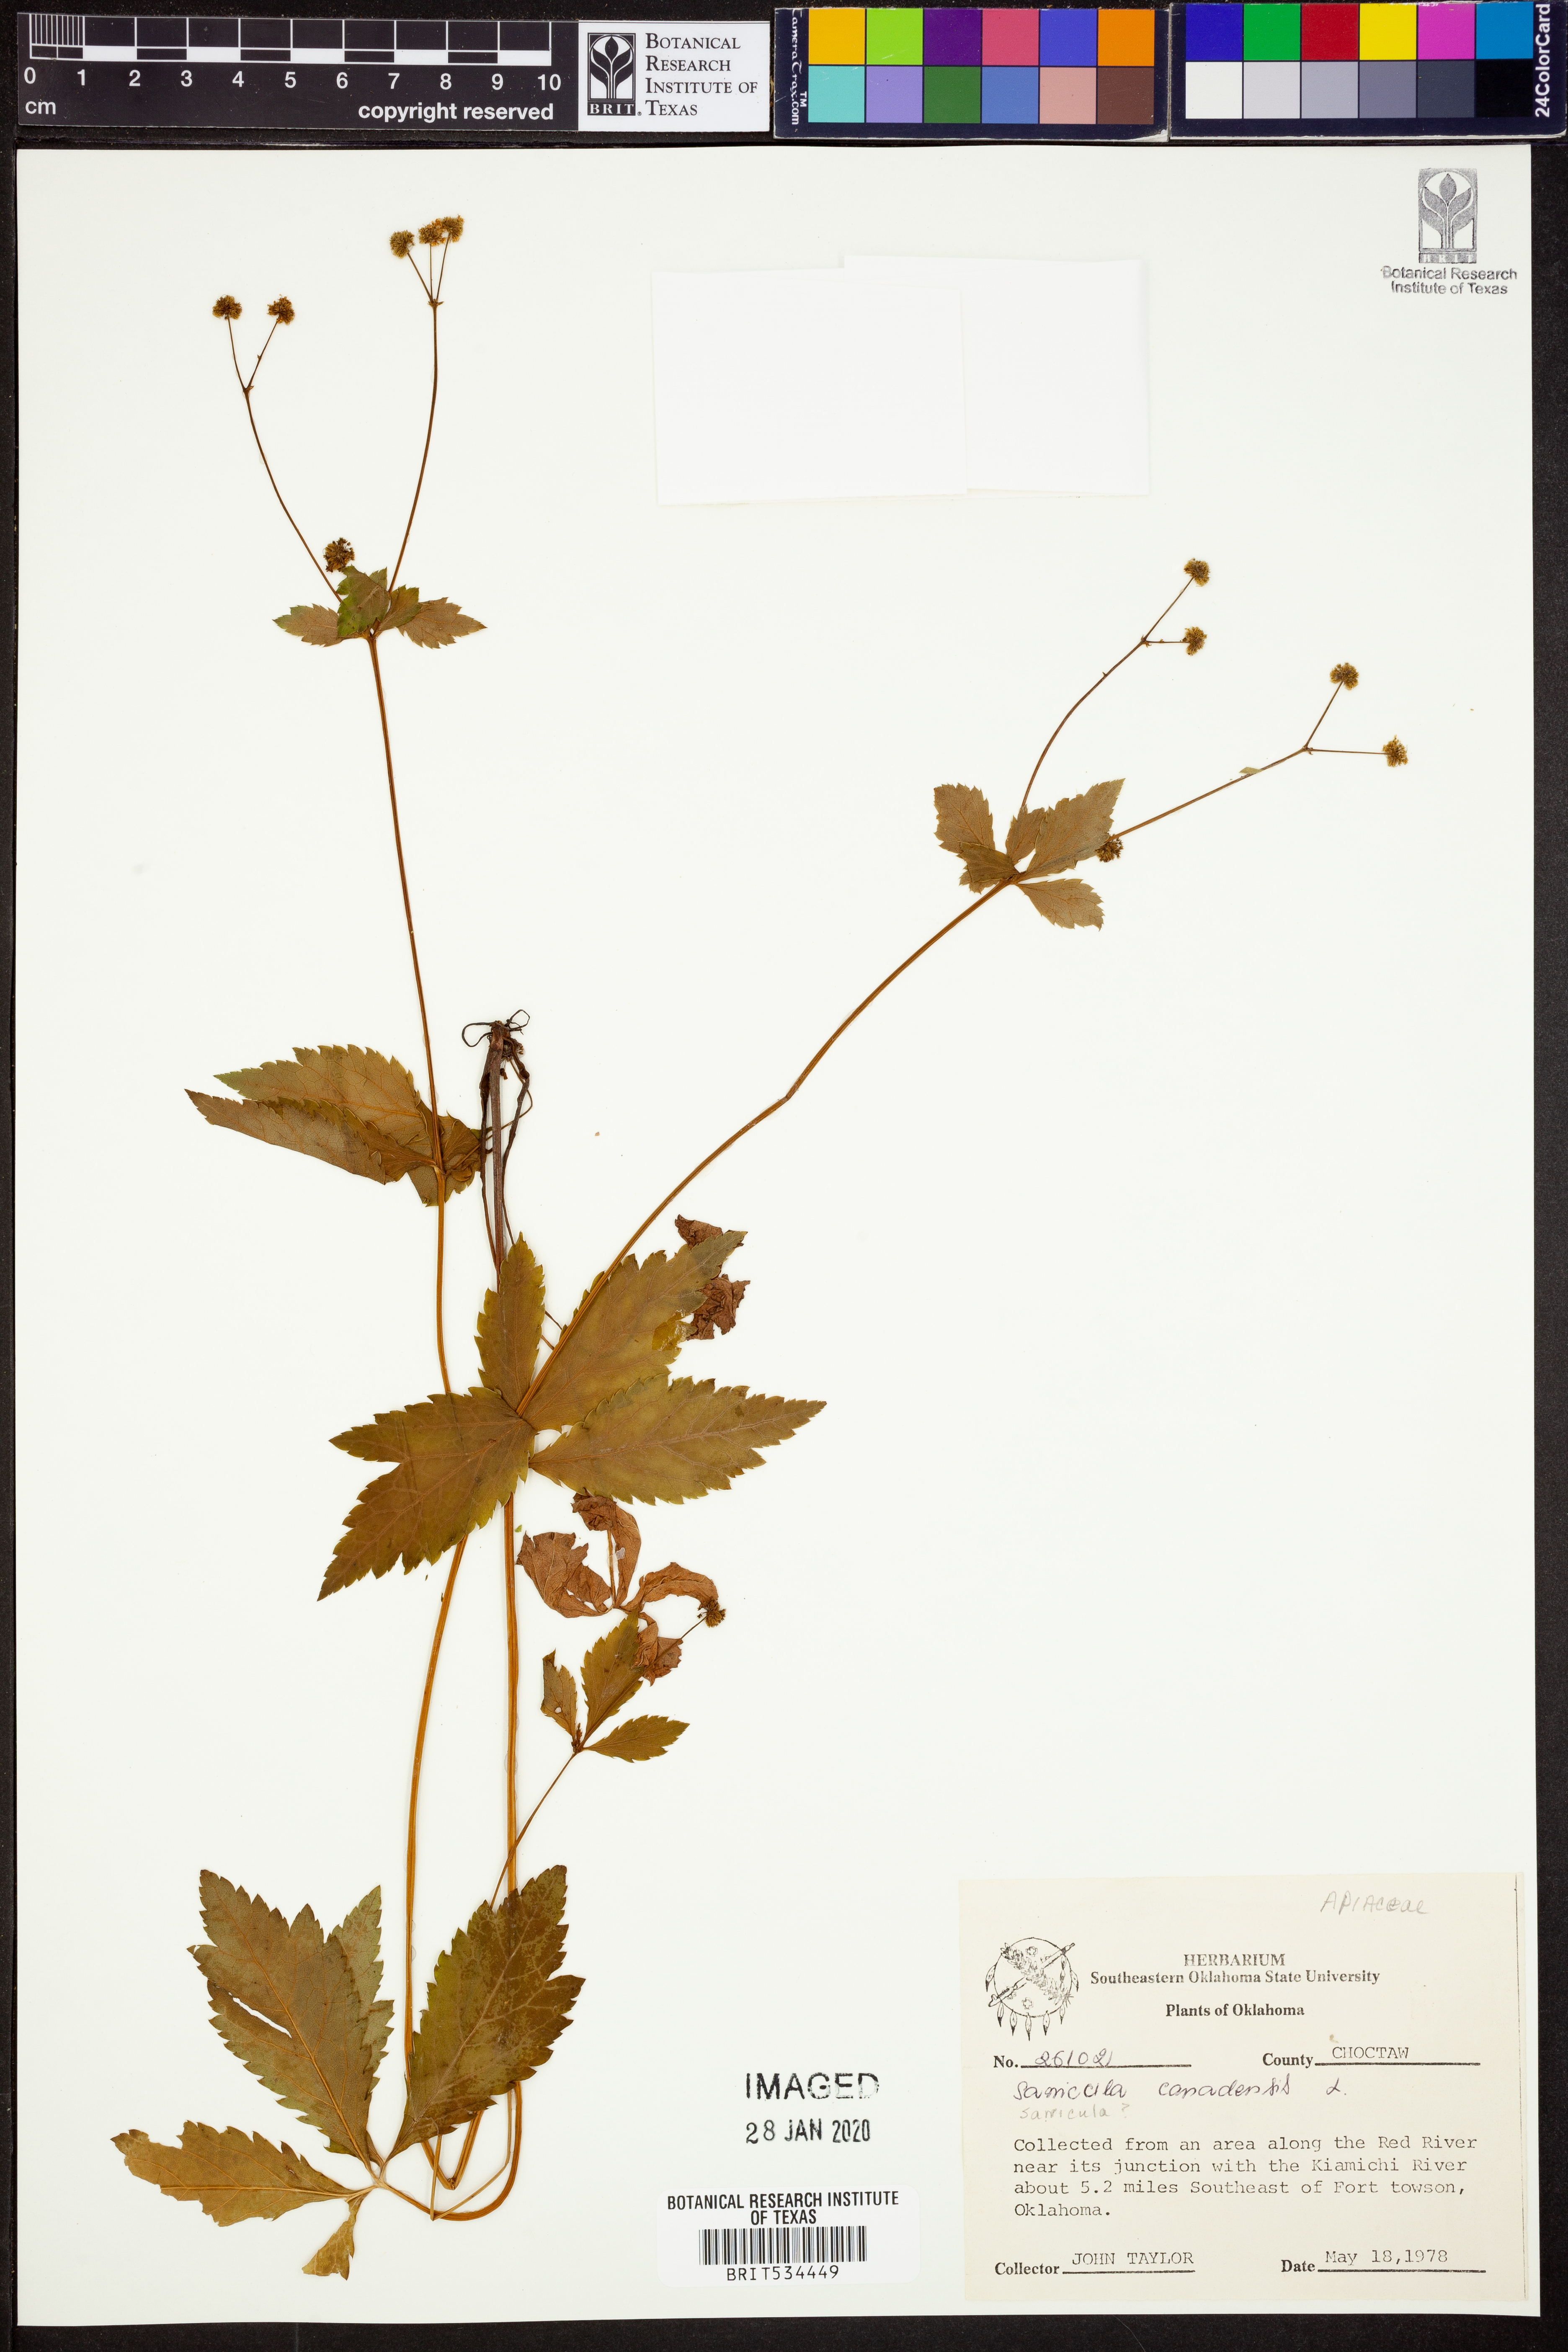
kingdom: Plantae
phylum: Tracheophyta
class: Magnoliopsida
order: Apiales
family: Apiaceae
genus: Sanicula
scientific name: Sanicula canadensis
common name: Canada sanicle
